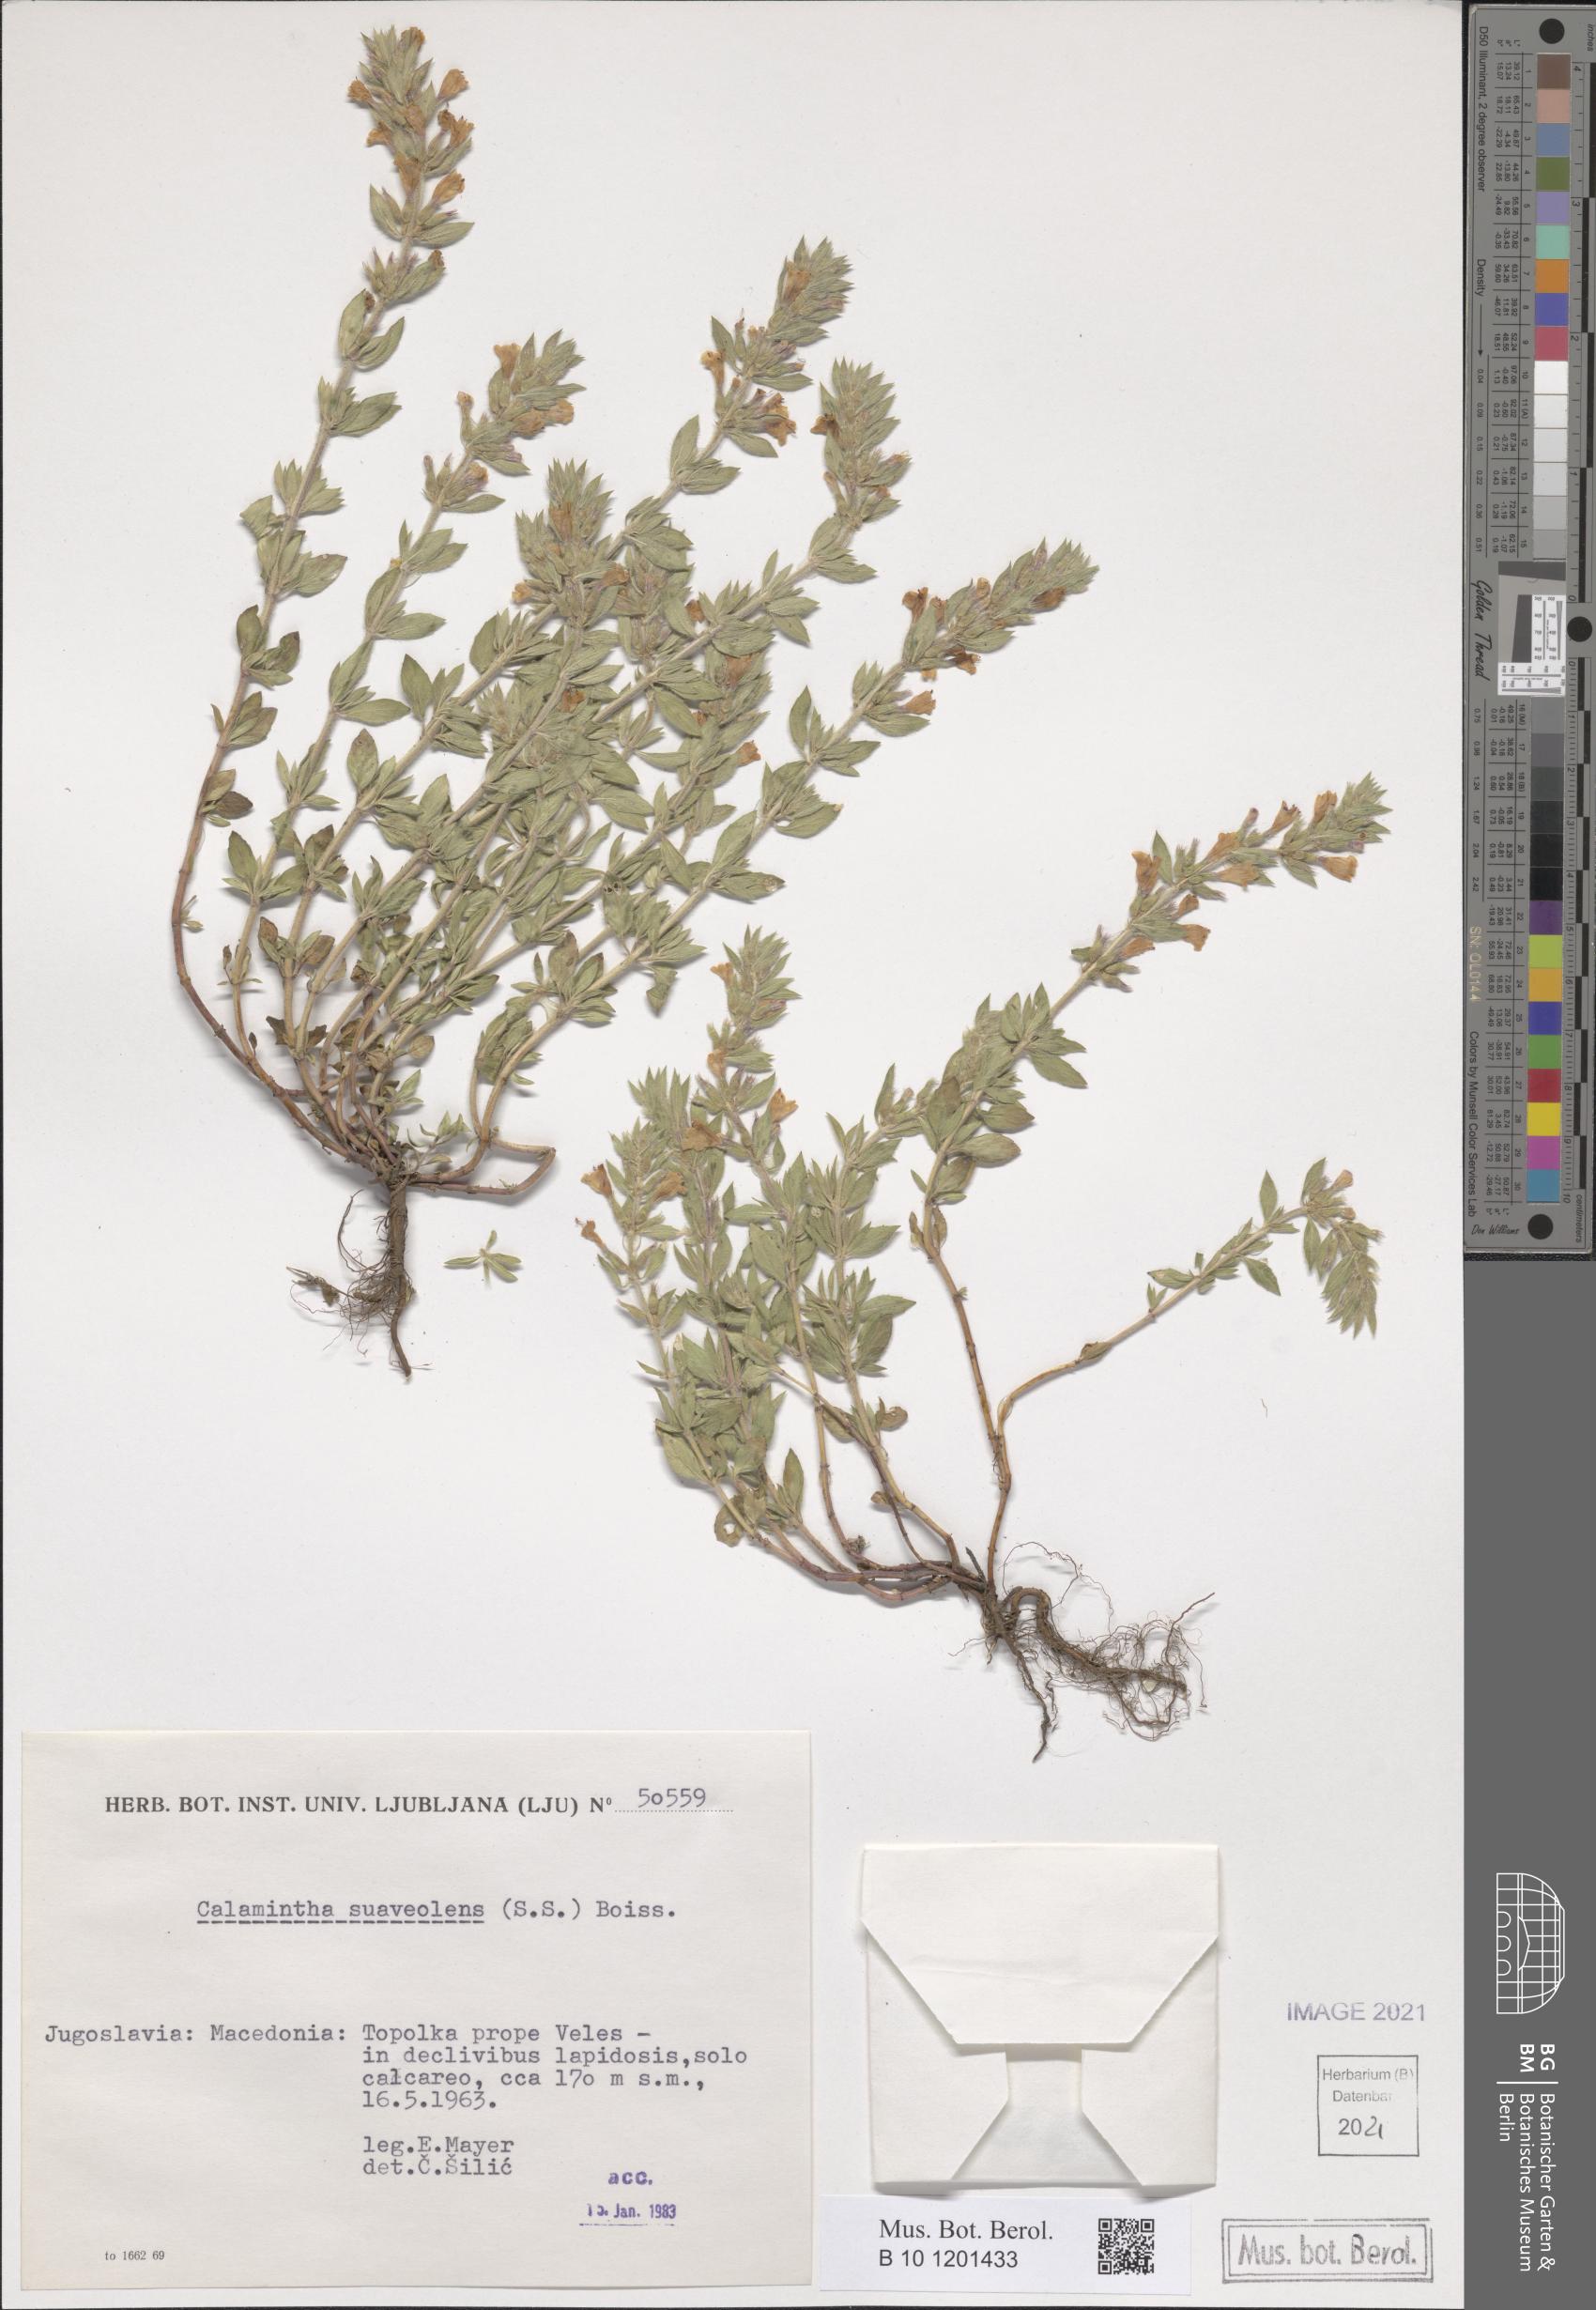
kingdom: Plantae
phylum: Tracheophyta
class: Magnoliopsida
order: Lamiales
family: Lamiaceae
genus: Clinopodium
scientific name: Clinopodium suaveolens
